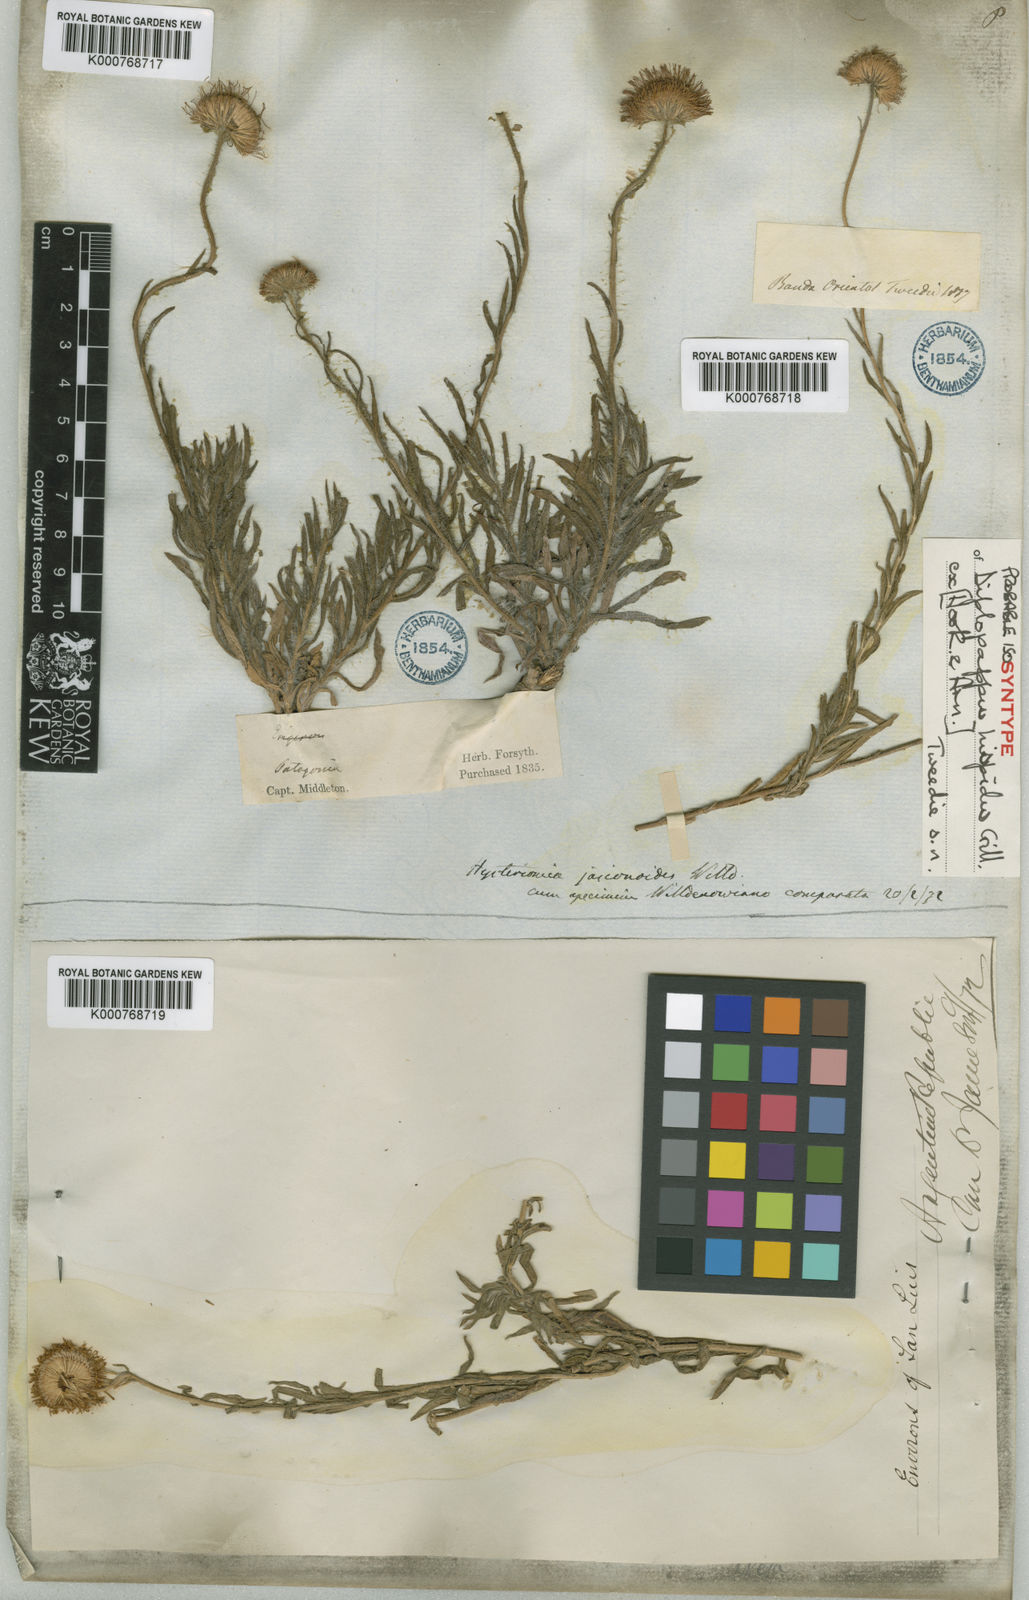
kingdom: Plantae
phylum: Tracheophyta
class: Magnoliopsida
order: Asterales
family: Asteraceae
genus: Hysterionica
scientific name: Hysterionica jasionoides
